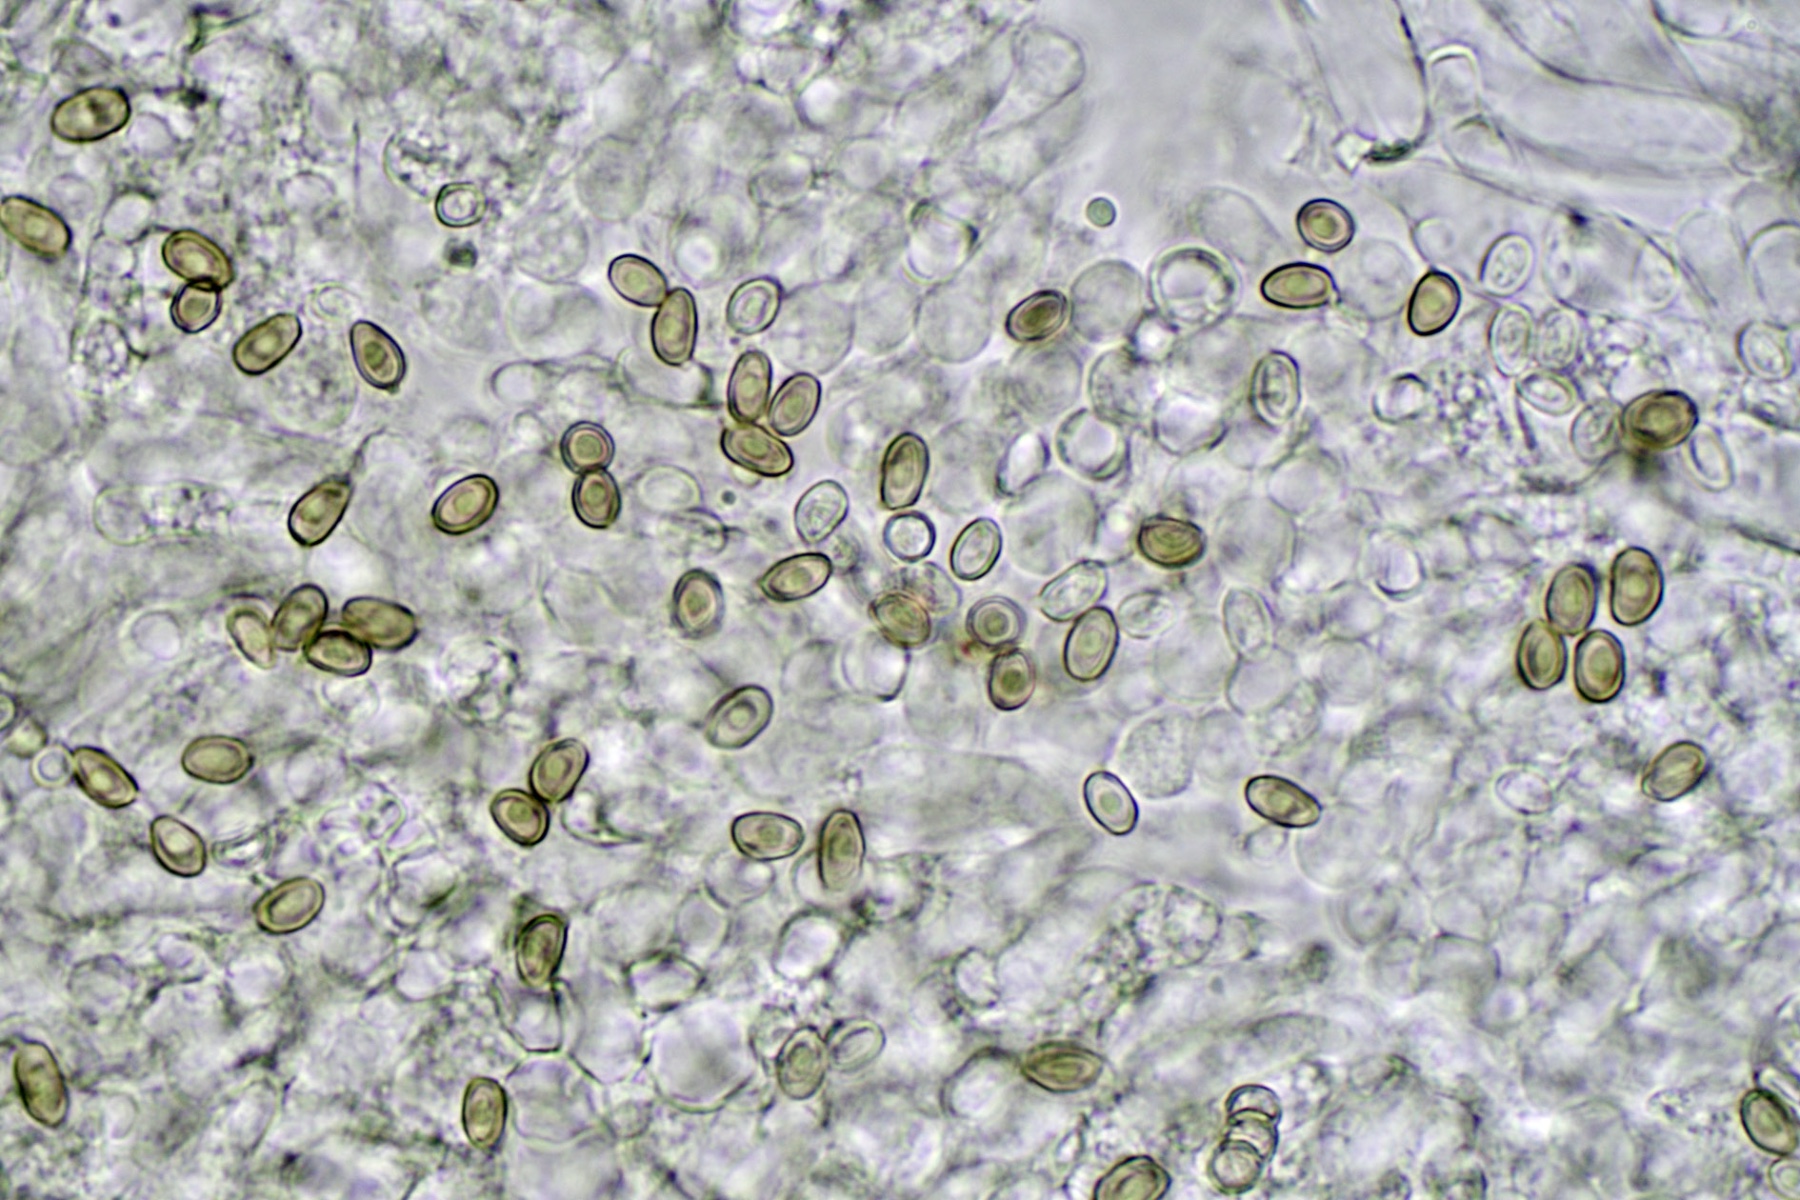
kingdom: Fungi
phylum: Basidiomycota
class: Agaricomycetes
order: Agaricales
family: Agaricaceae
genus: Agaricus
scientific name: Agaricus impudicus
